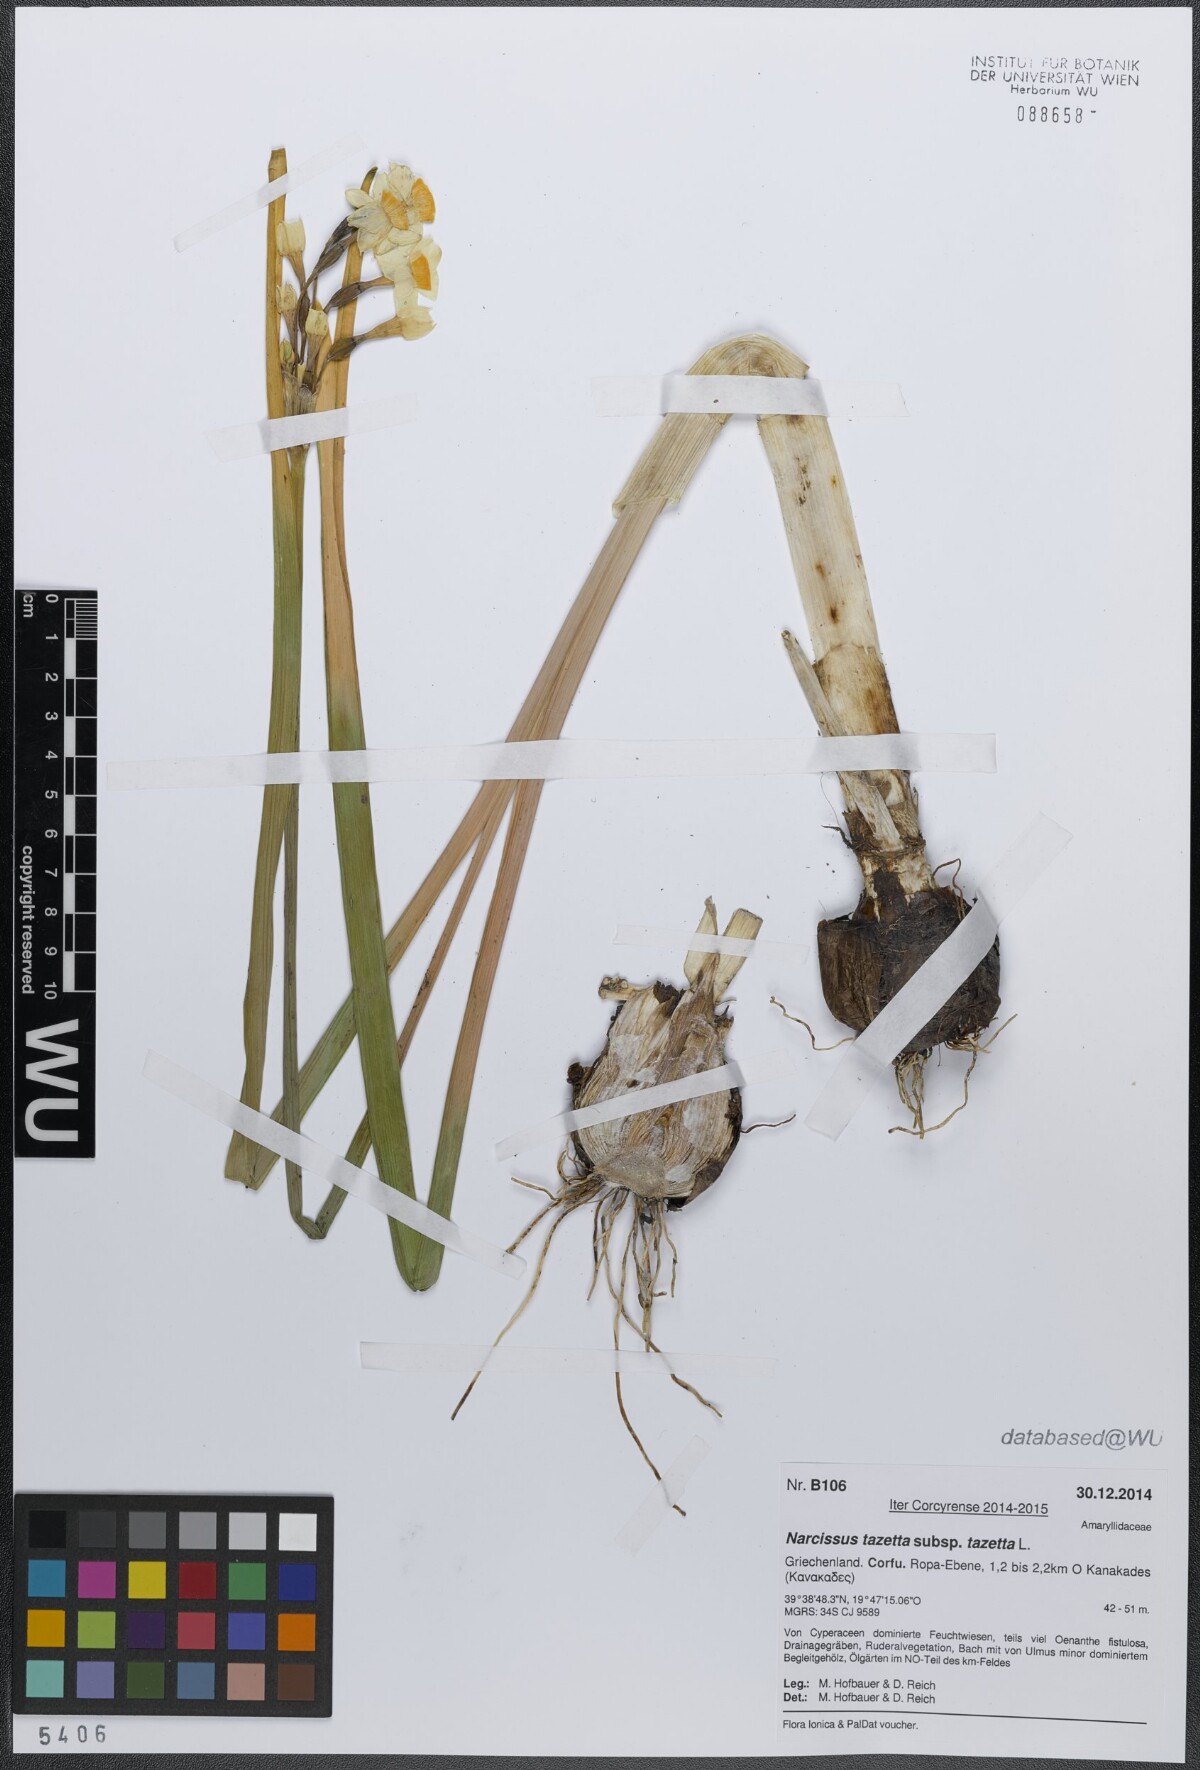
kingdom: Plantae
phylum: Tracheophyta
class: Liliopsida
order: Asparagales
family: Amaryllidaceae
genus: Narcissus
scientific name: Narcissus tazetta
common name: Bunch-flowered daffodil
